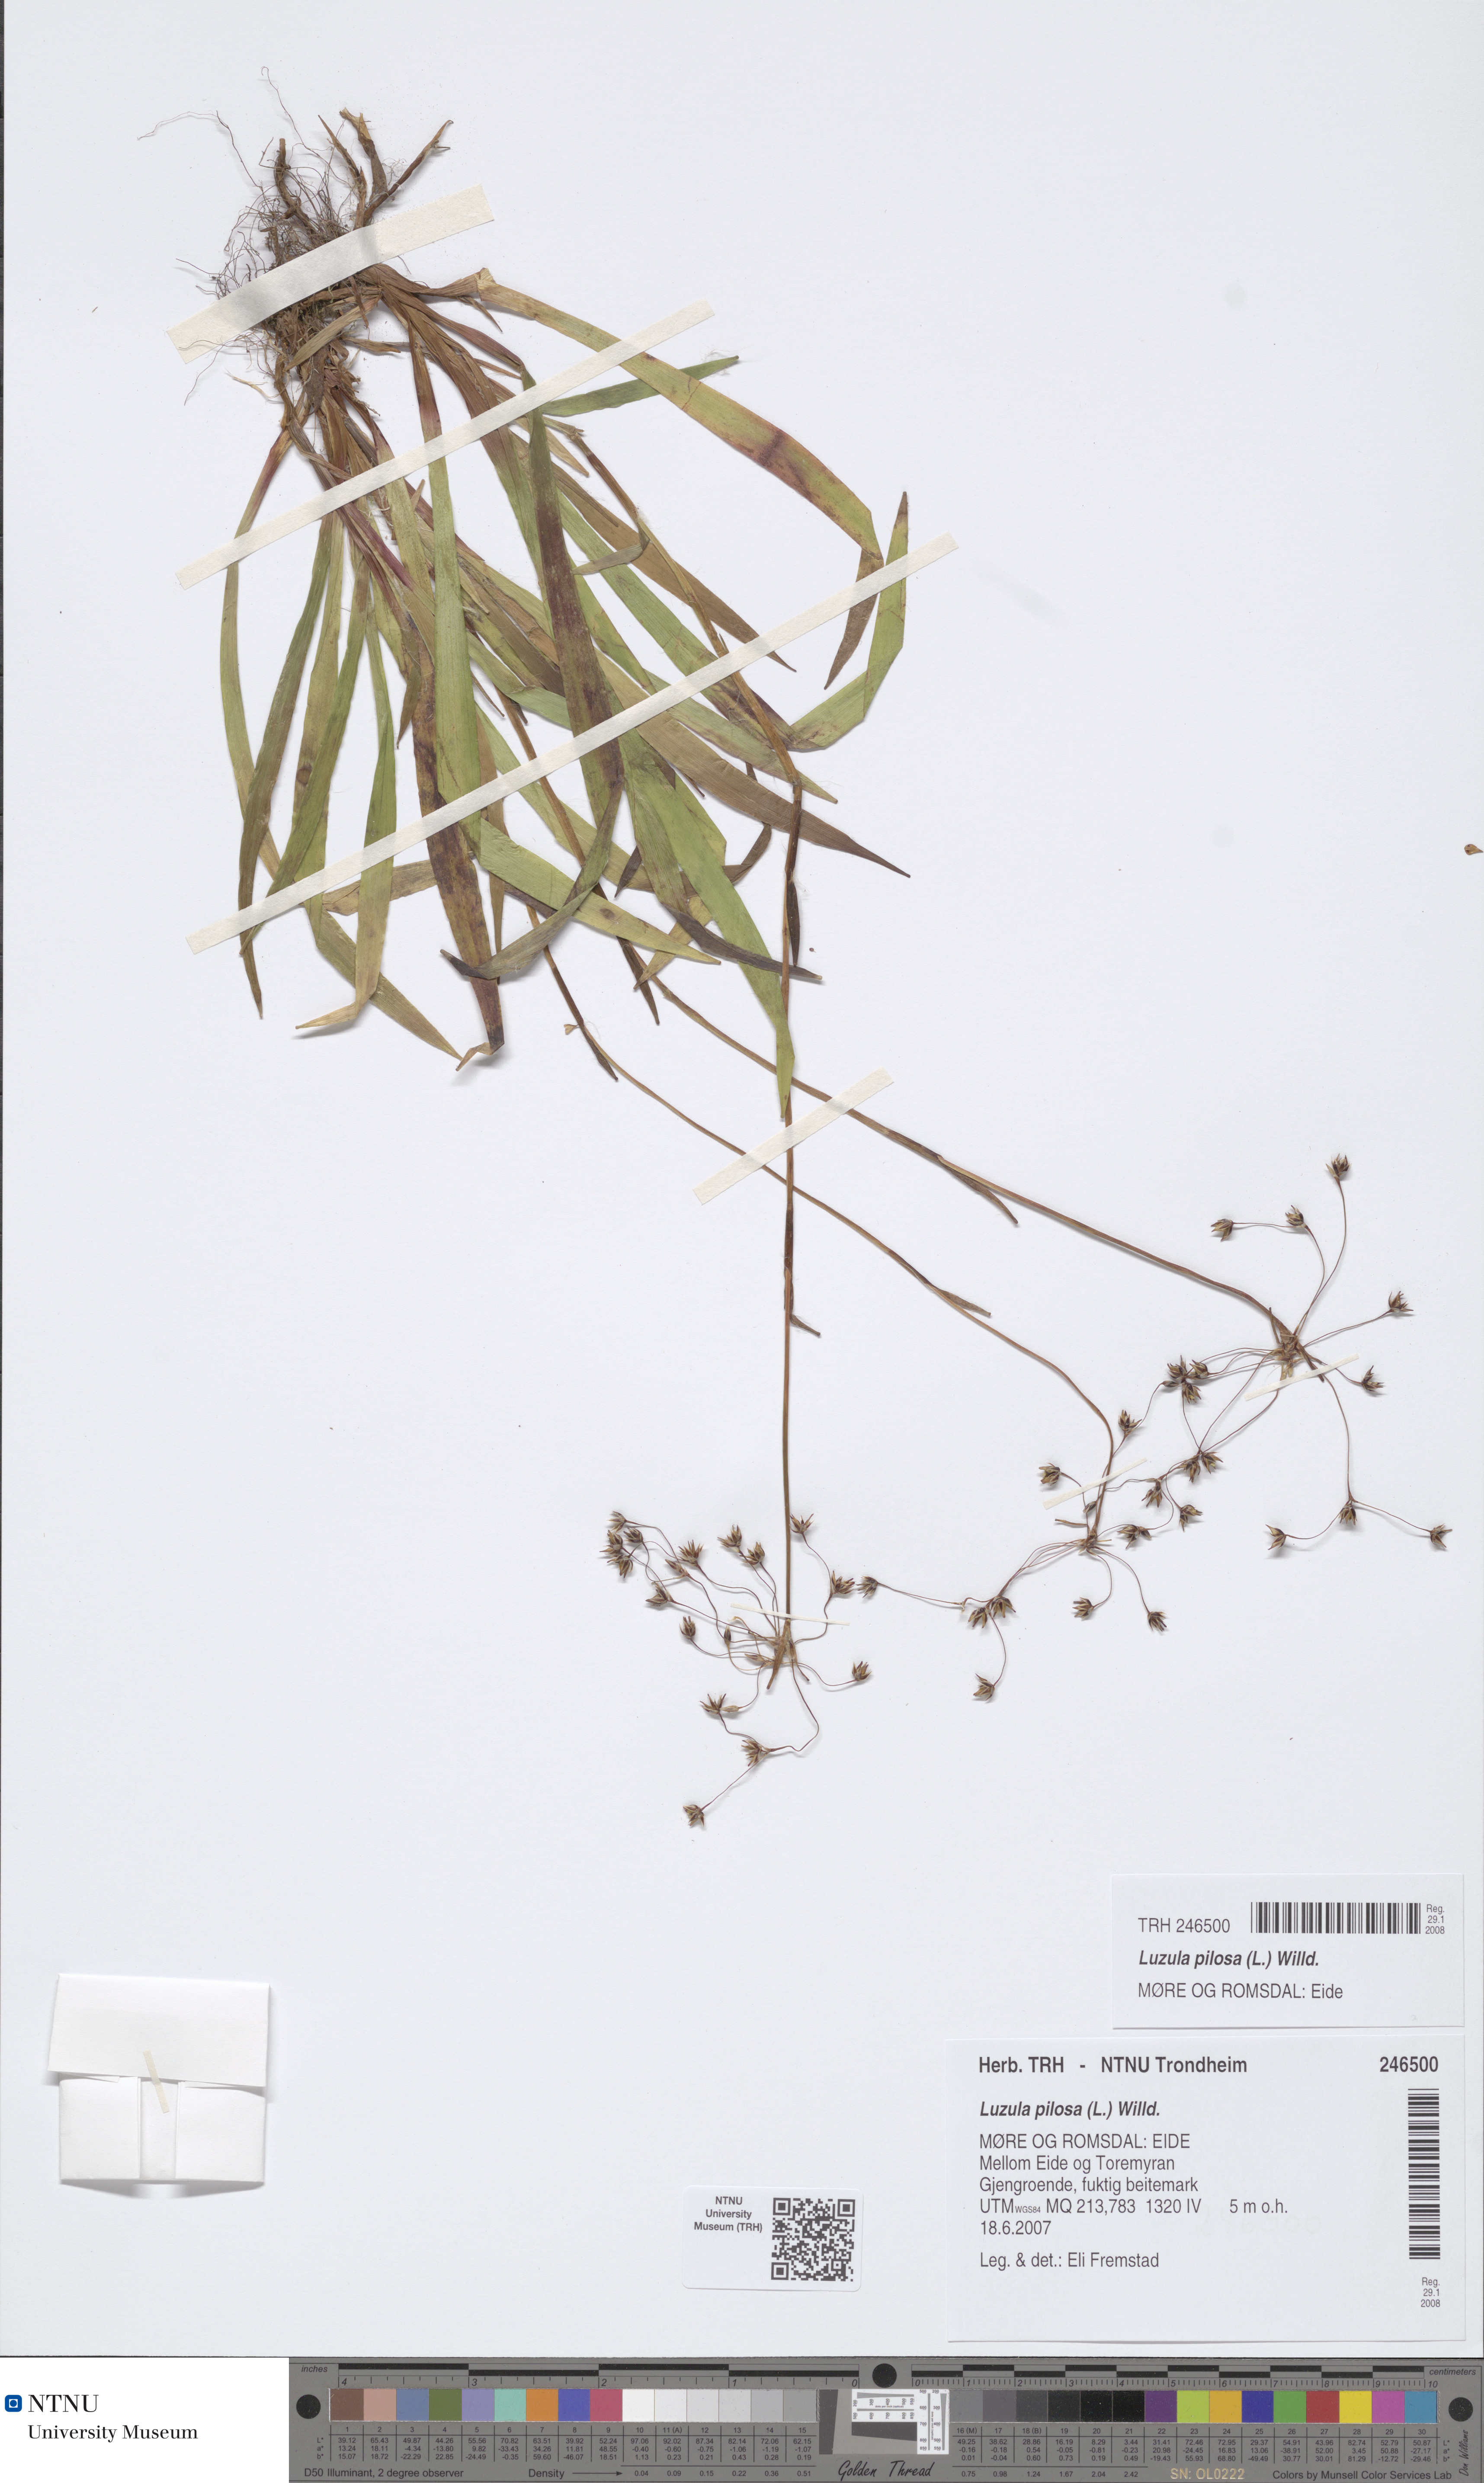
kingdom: Plantae
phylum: Tracheophyta
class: Liliopsida
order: Poales
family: Juncaceae
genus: Luzula
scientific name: Luzula pilosa
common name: Hairy wood-rush
